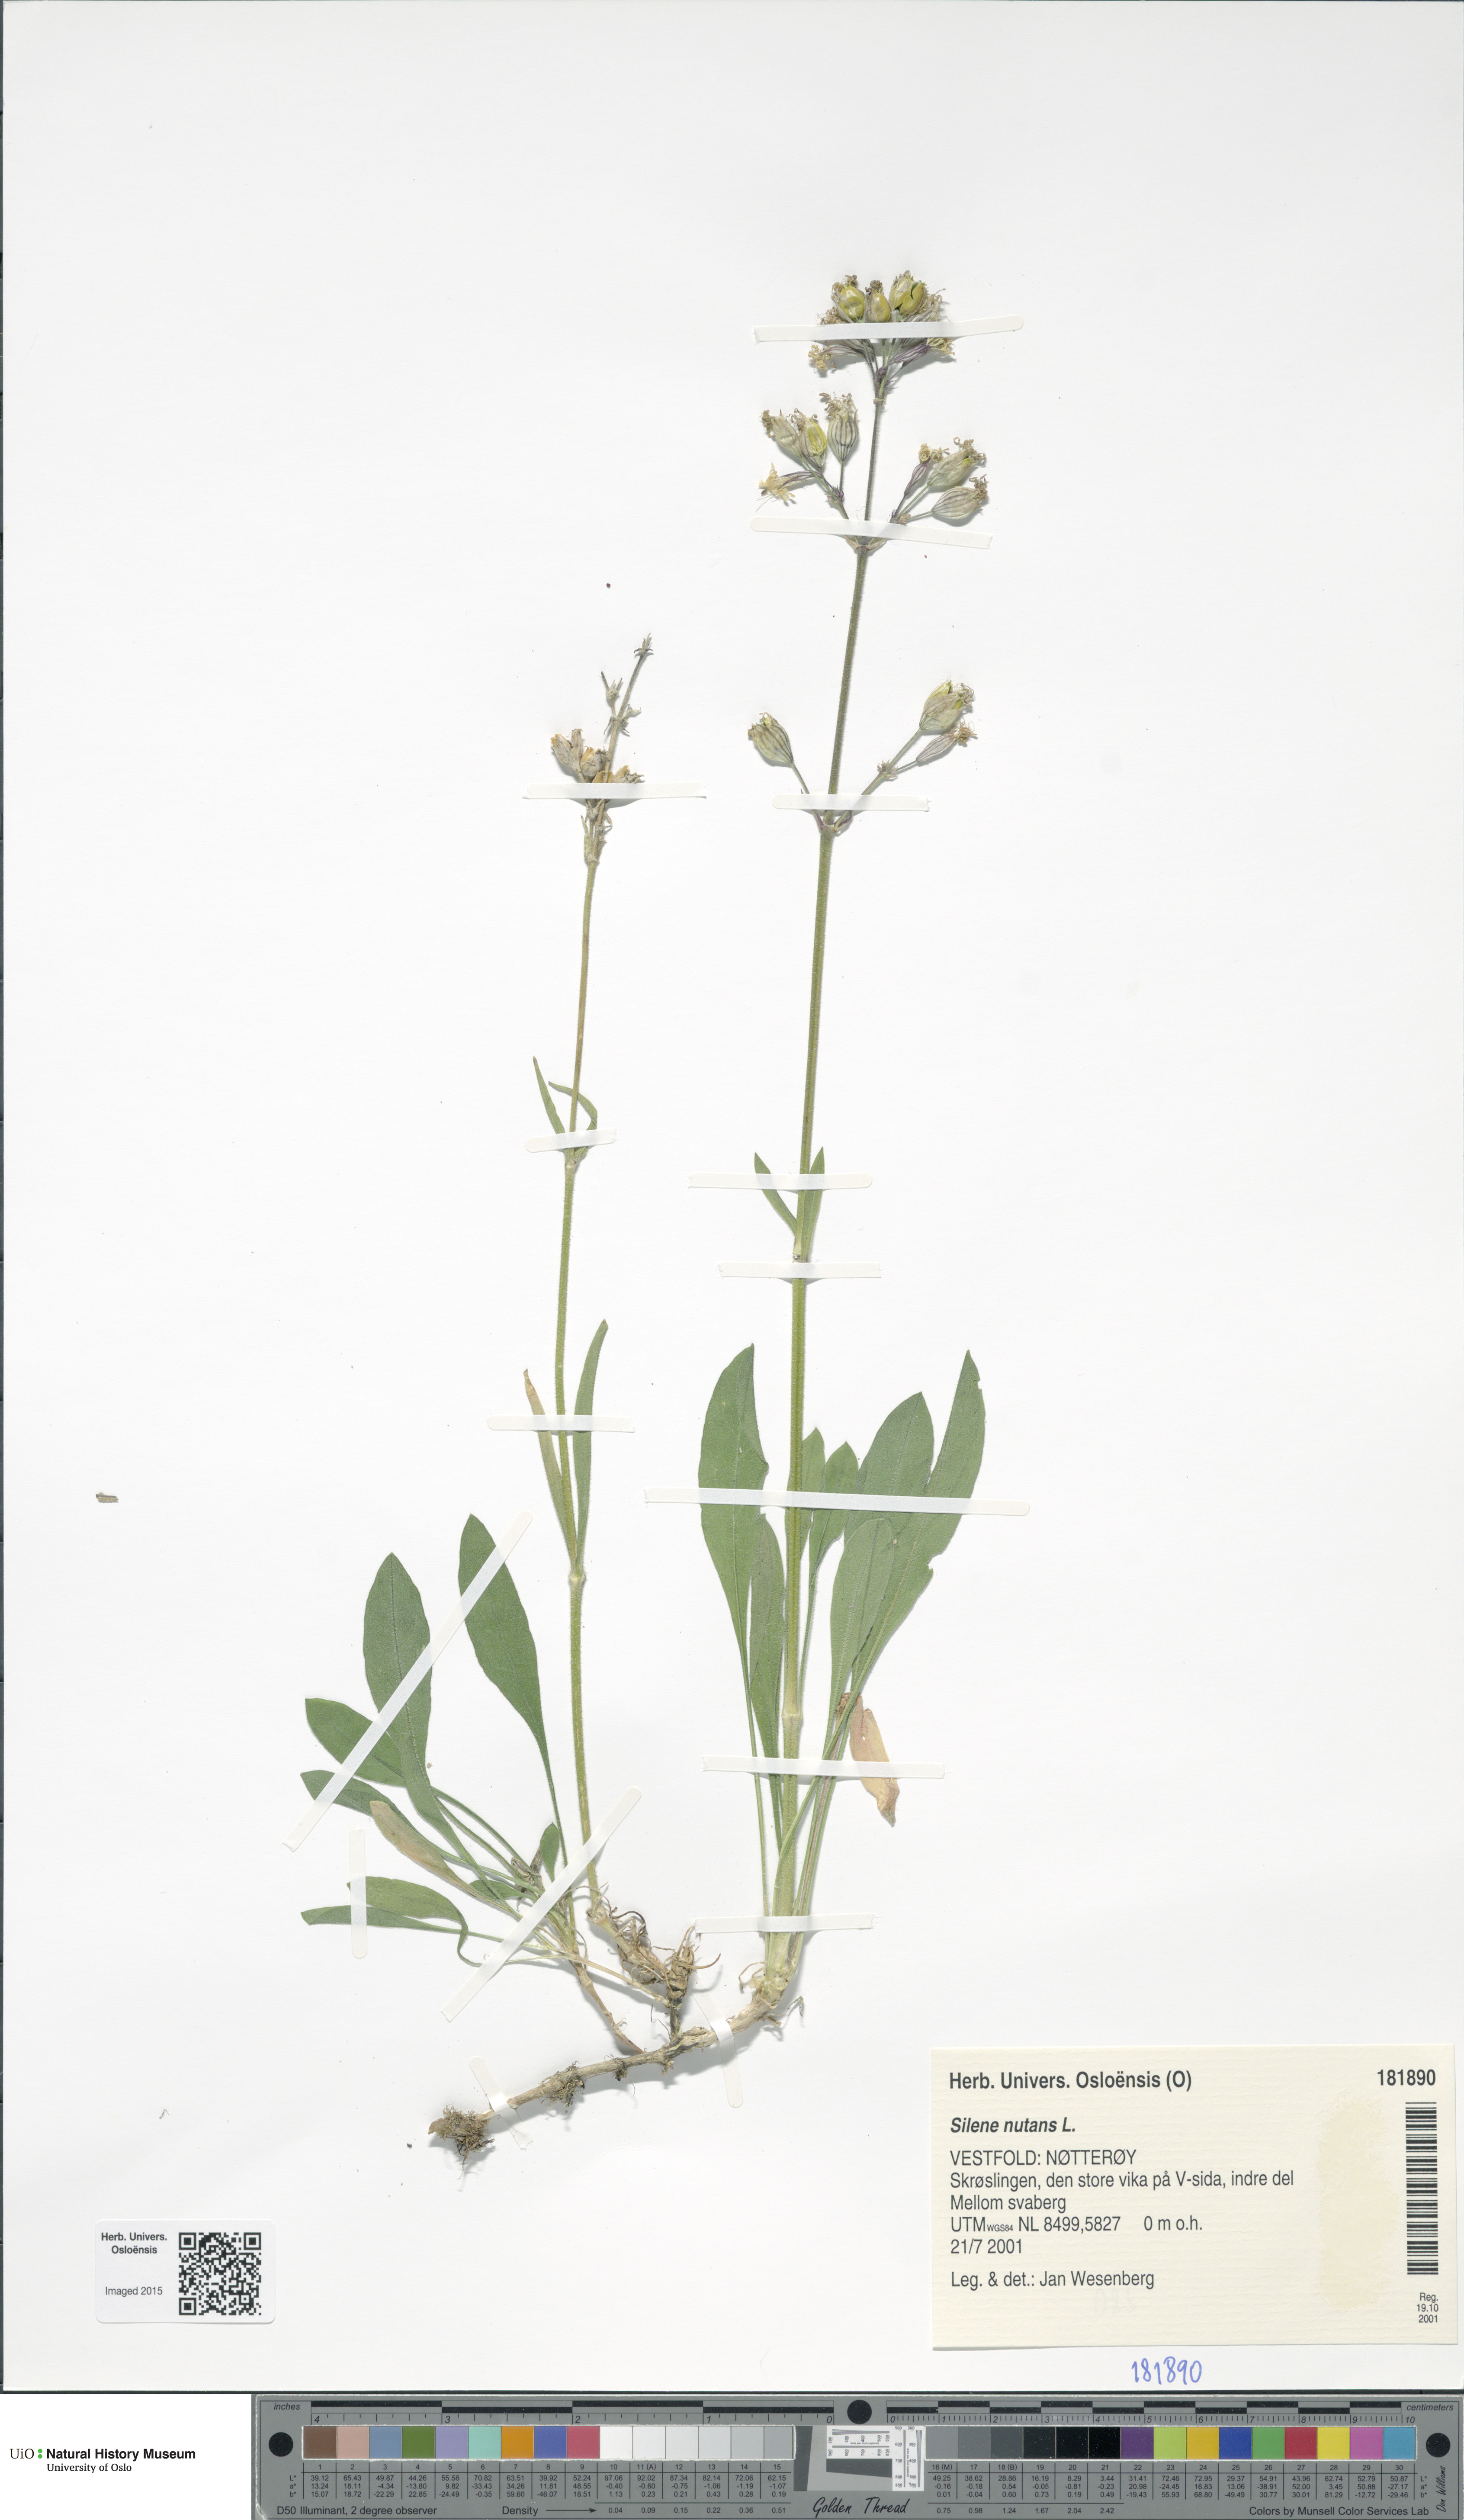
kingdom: Plantae
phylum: Tracheophyta
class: Magnoliopsida
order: Caryophyllales
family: Caryophyllaceae
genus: Silene
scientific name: Silene nutans
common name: Nottingham catchfly
